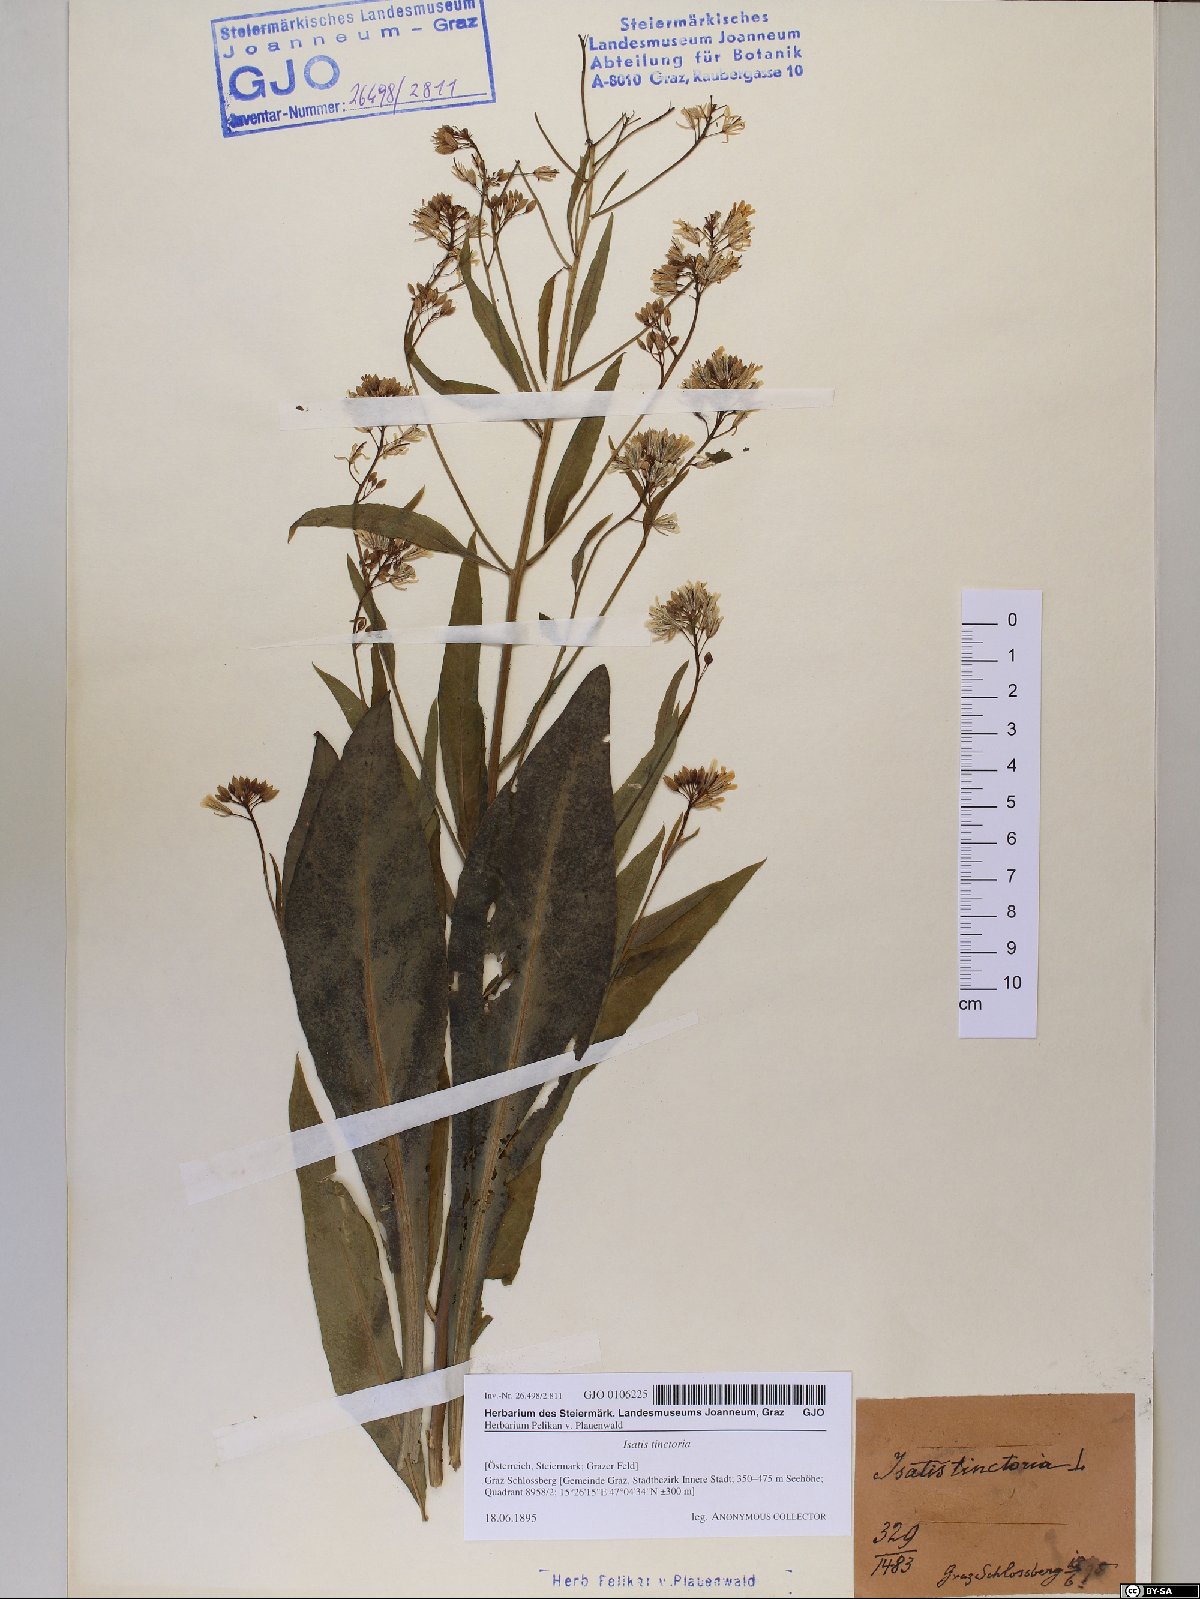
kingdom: Plantae
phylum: Tracheophyta
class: Magnoliopsida
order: Brassicales
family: Brassicaceae
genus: Isatis
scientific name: Isatis tinctoria
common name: Woad
